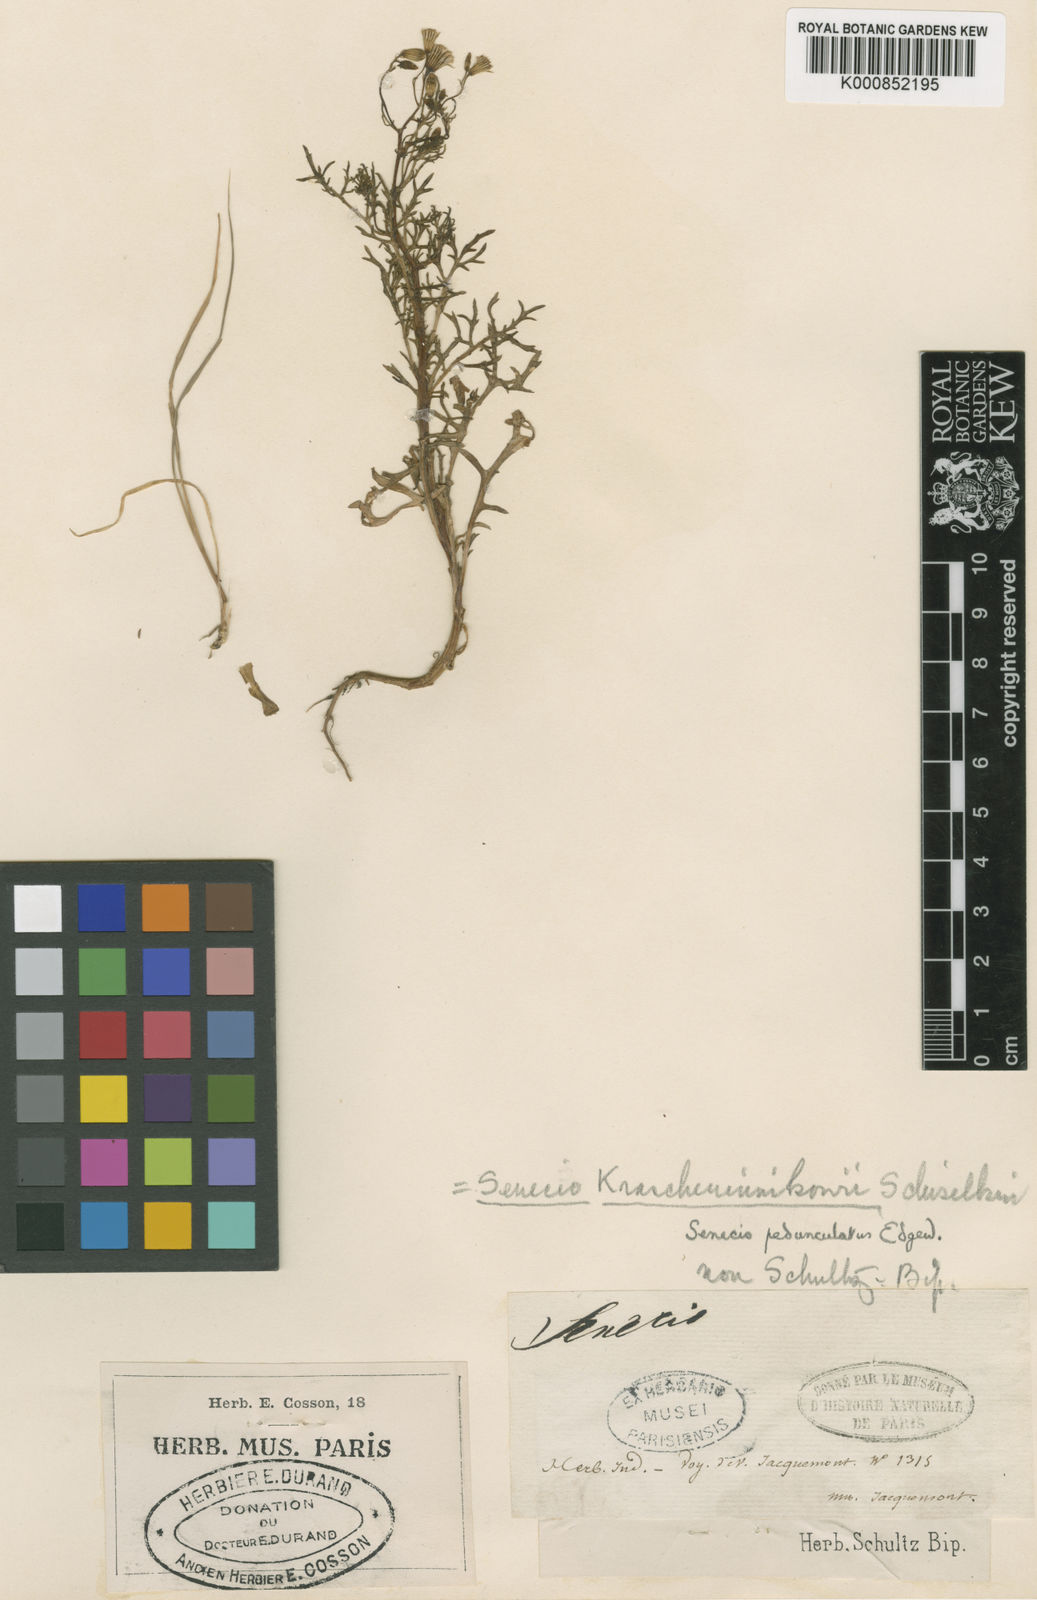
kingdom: Plantae
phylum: Tracheophyta
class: Magnoliopsida
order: Asterales
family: Asteraceae
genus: Senecio
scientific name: Senecio krascheninnikovii
